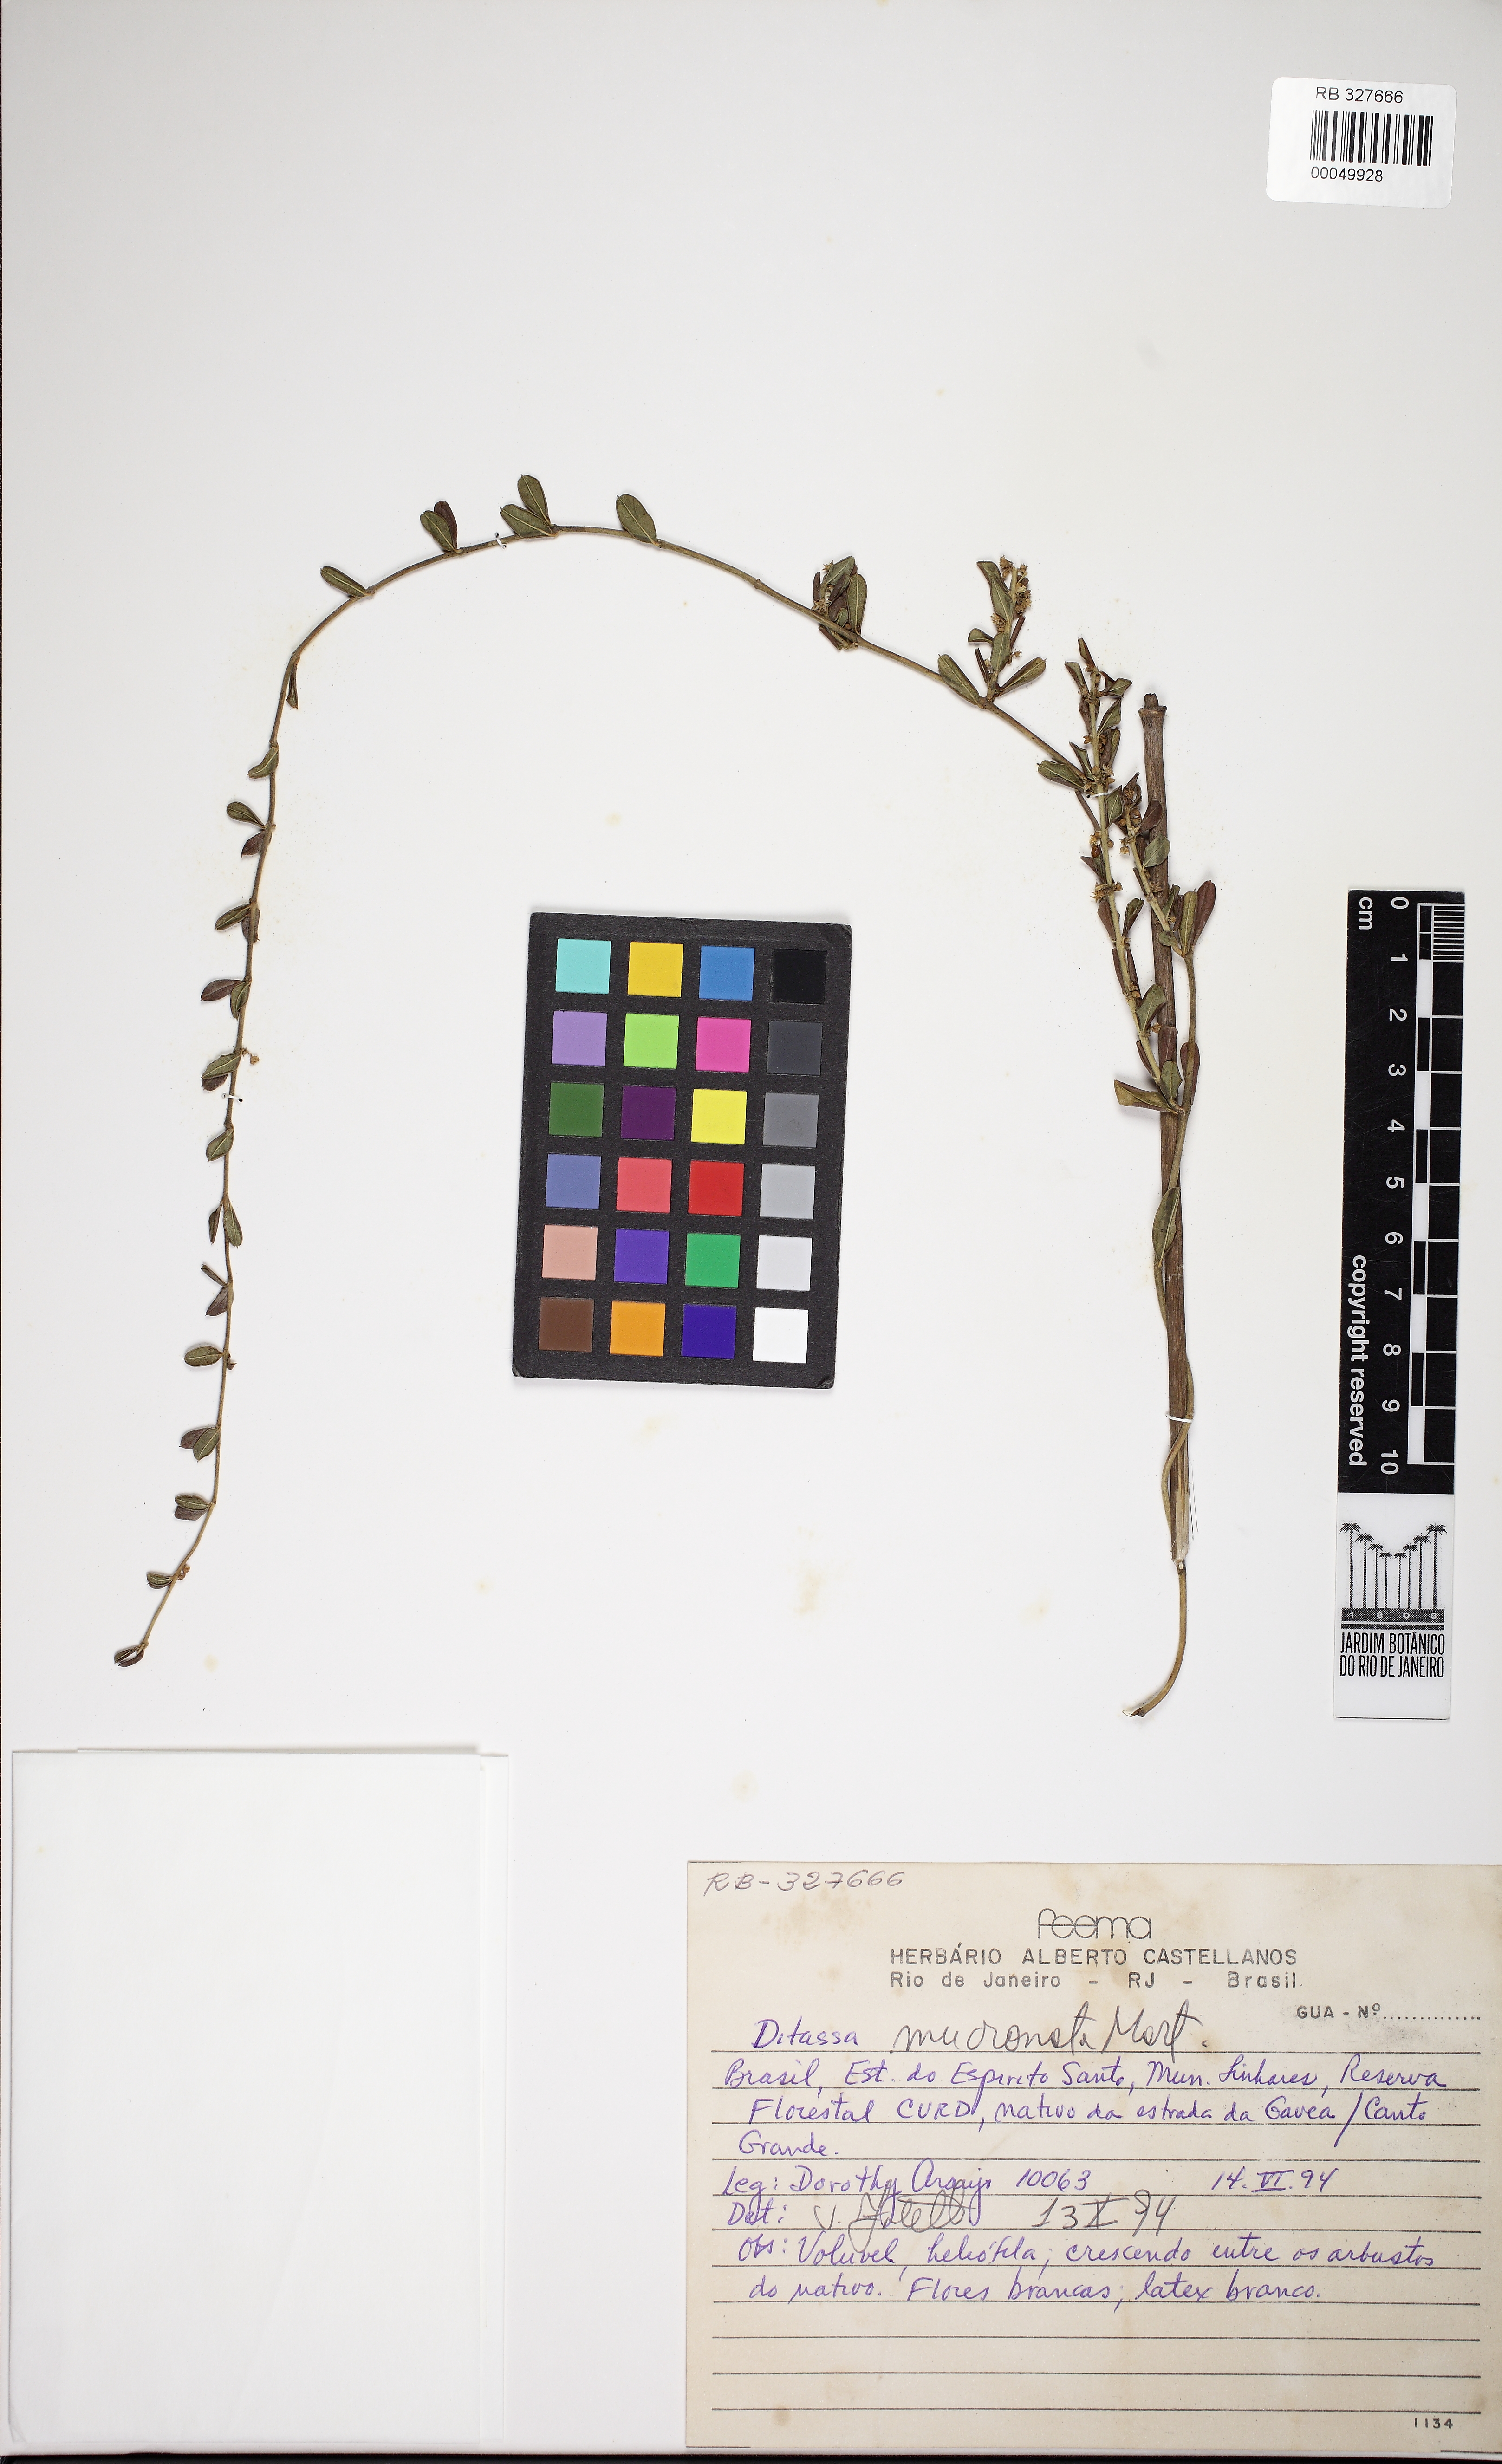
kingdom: Plantae
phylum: Tracheophyta
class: Magnoliopsida
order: Gentianales
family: Apocynaceae
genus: Ditassa
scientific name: Ditassa mucronata
